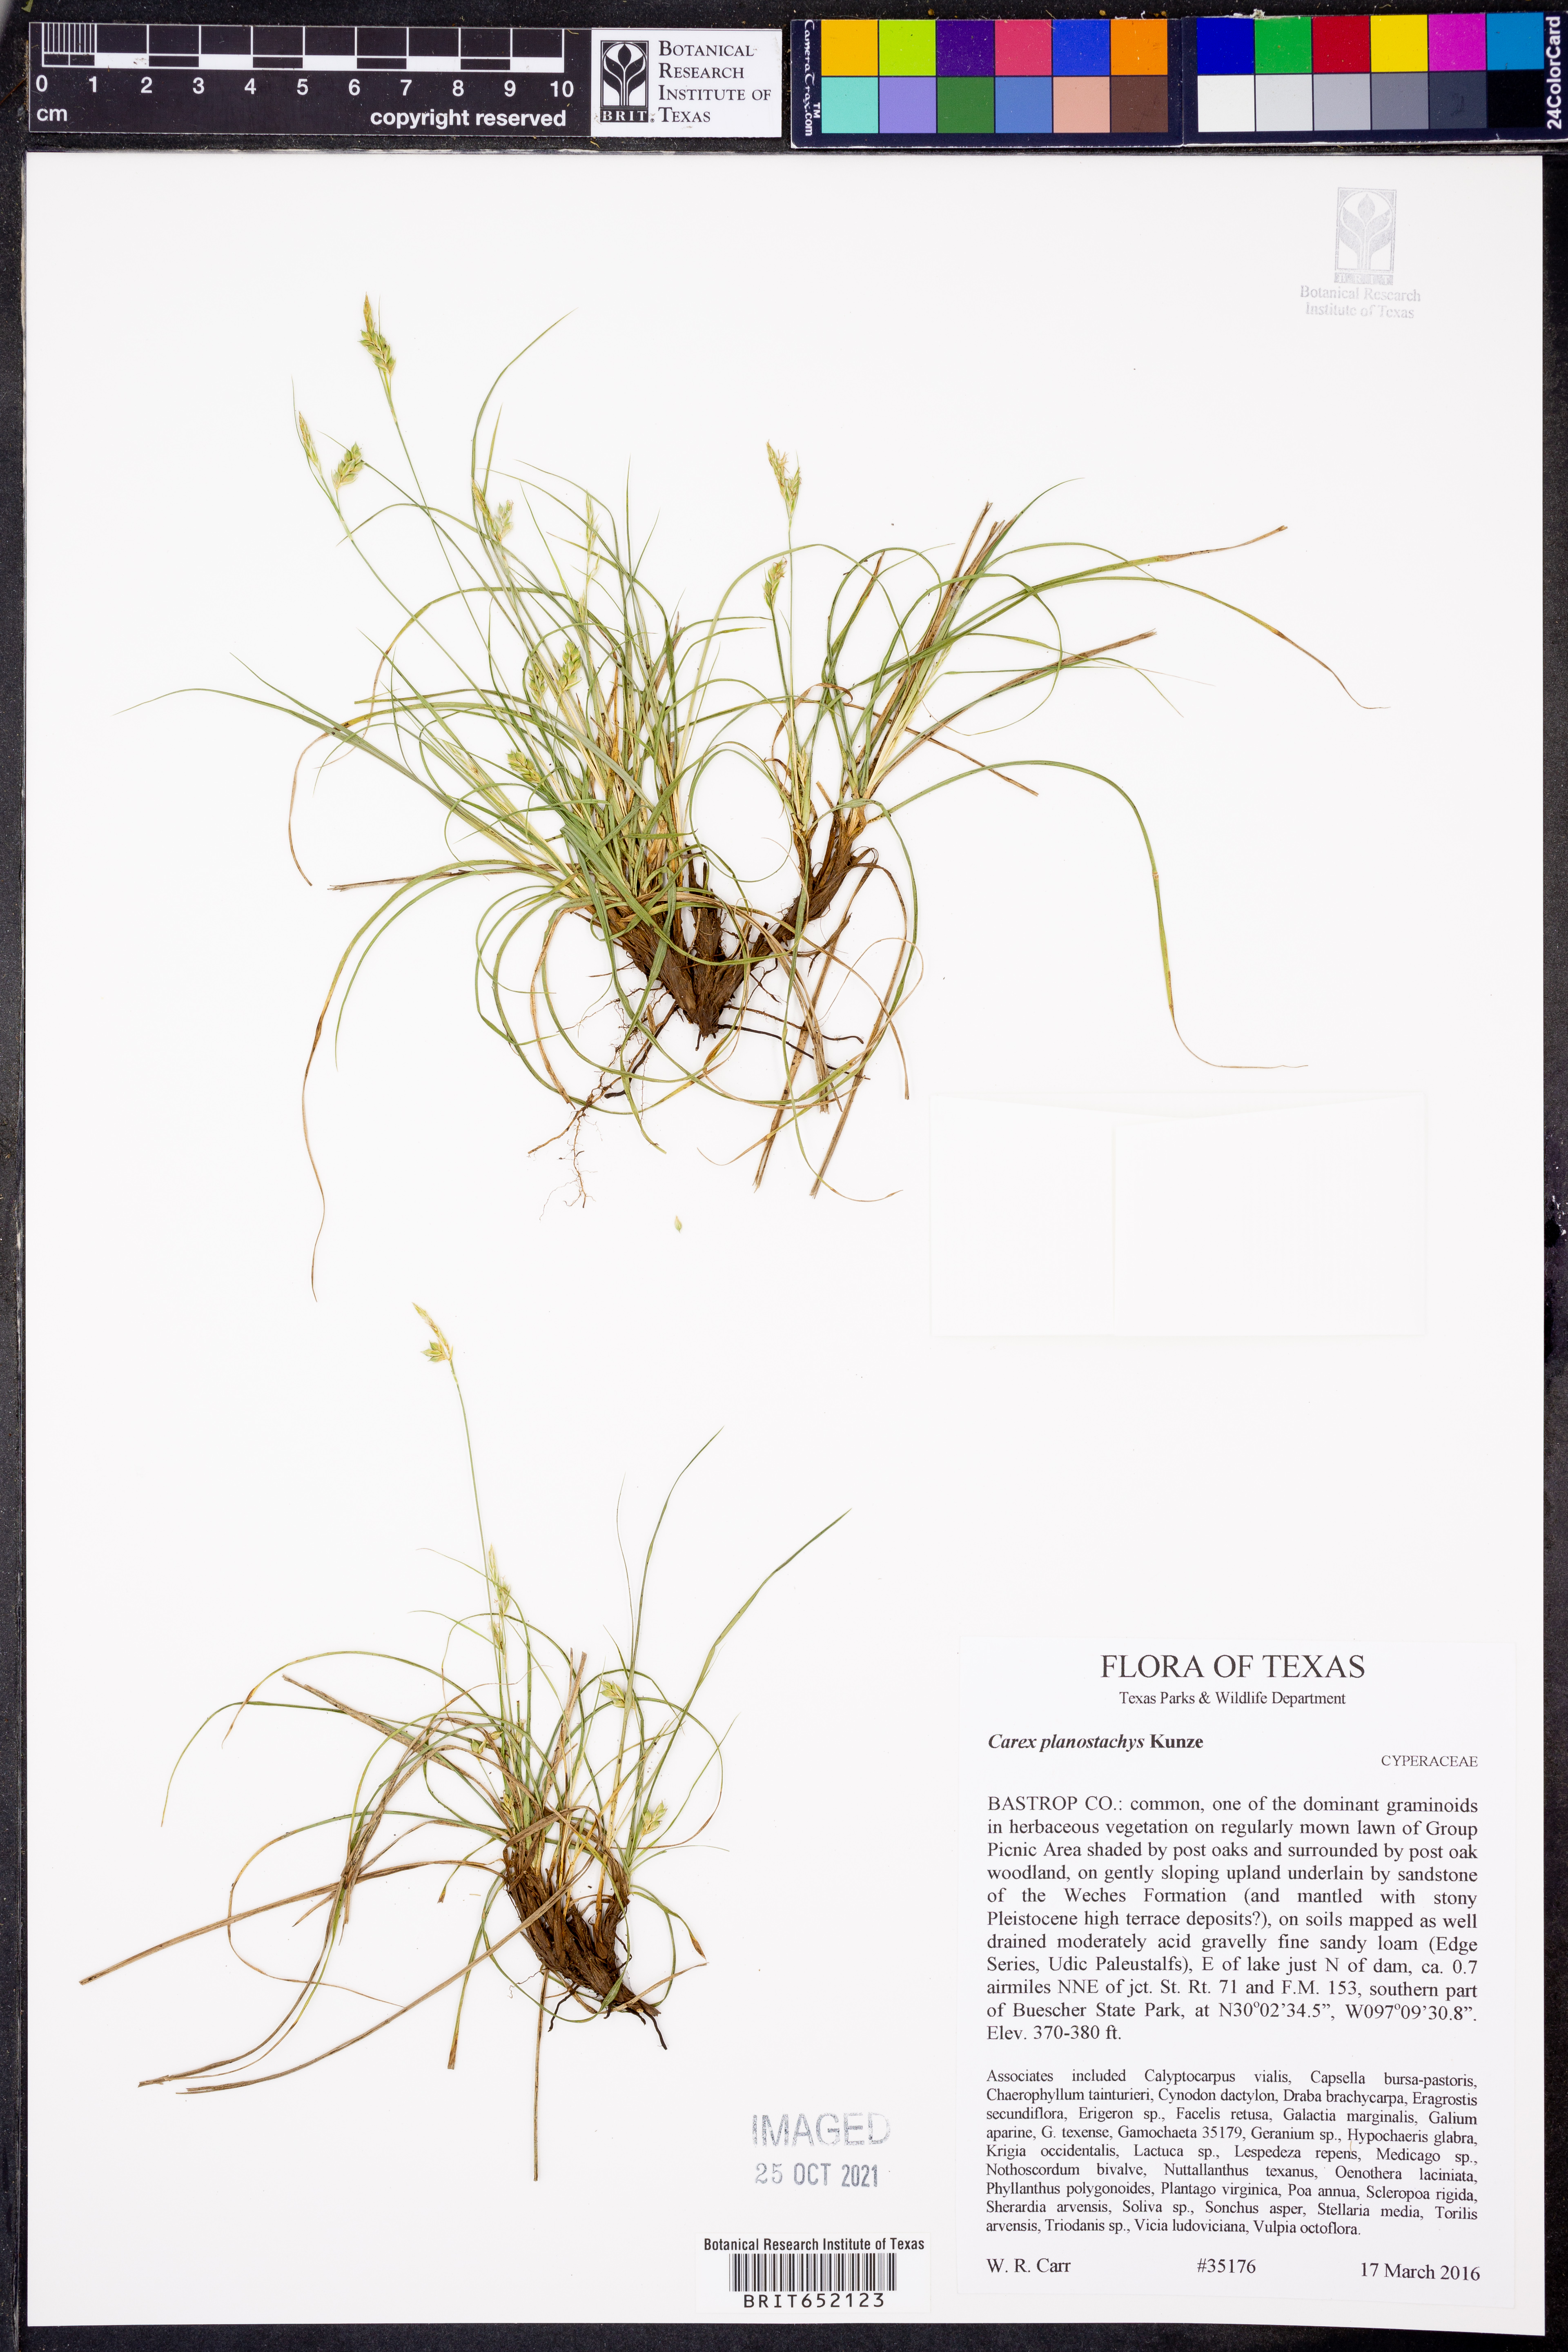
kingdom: Plantae
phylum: Tracheophyta
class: Liliopsida
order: Poales
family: Cyperaceae
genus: Carex
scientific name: Carex planostachys
